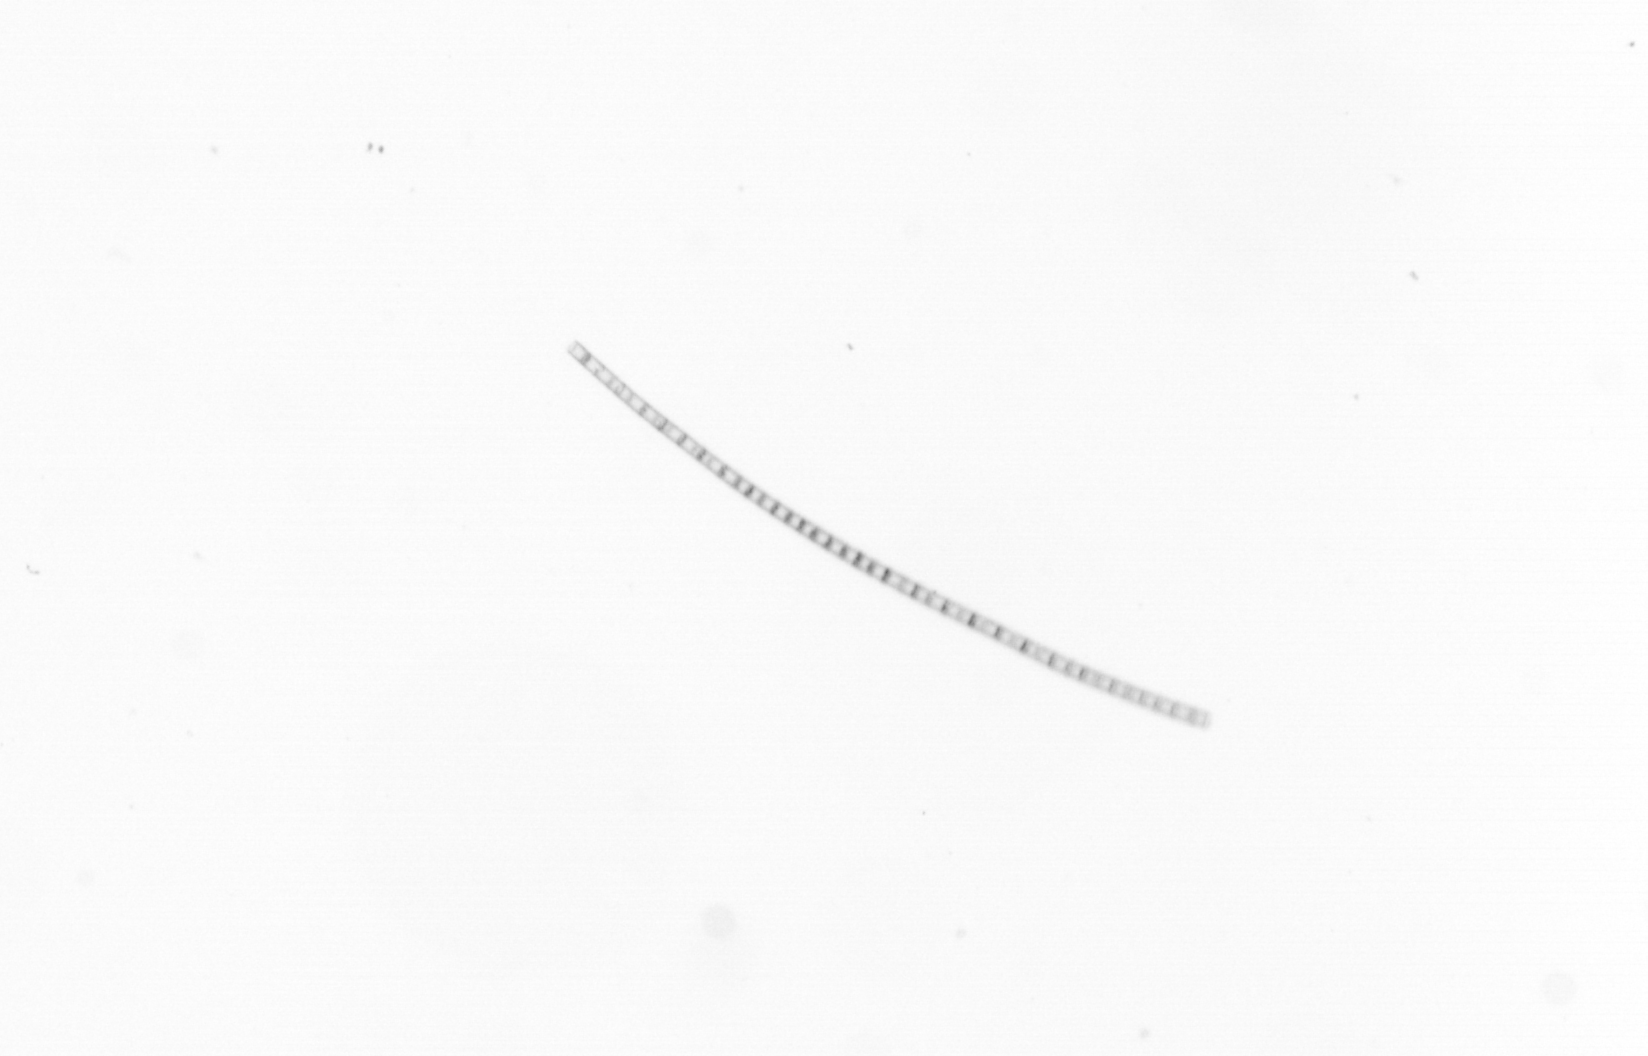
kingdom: Chromista
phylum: Ochrophyta
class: Bacillariophyceae
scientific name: Bacillariophyceae
